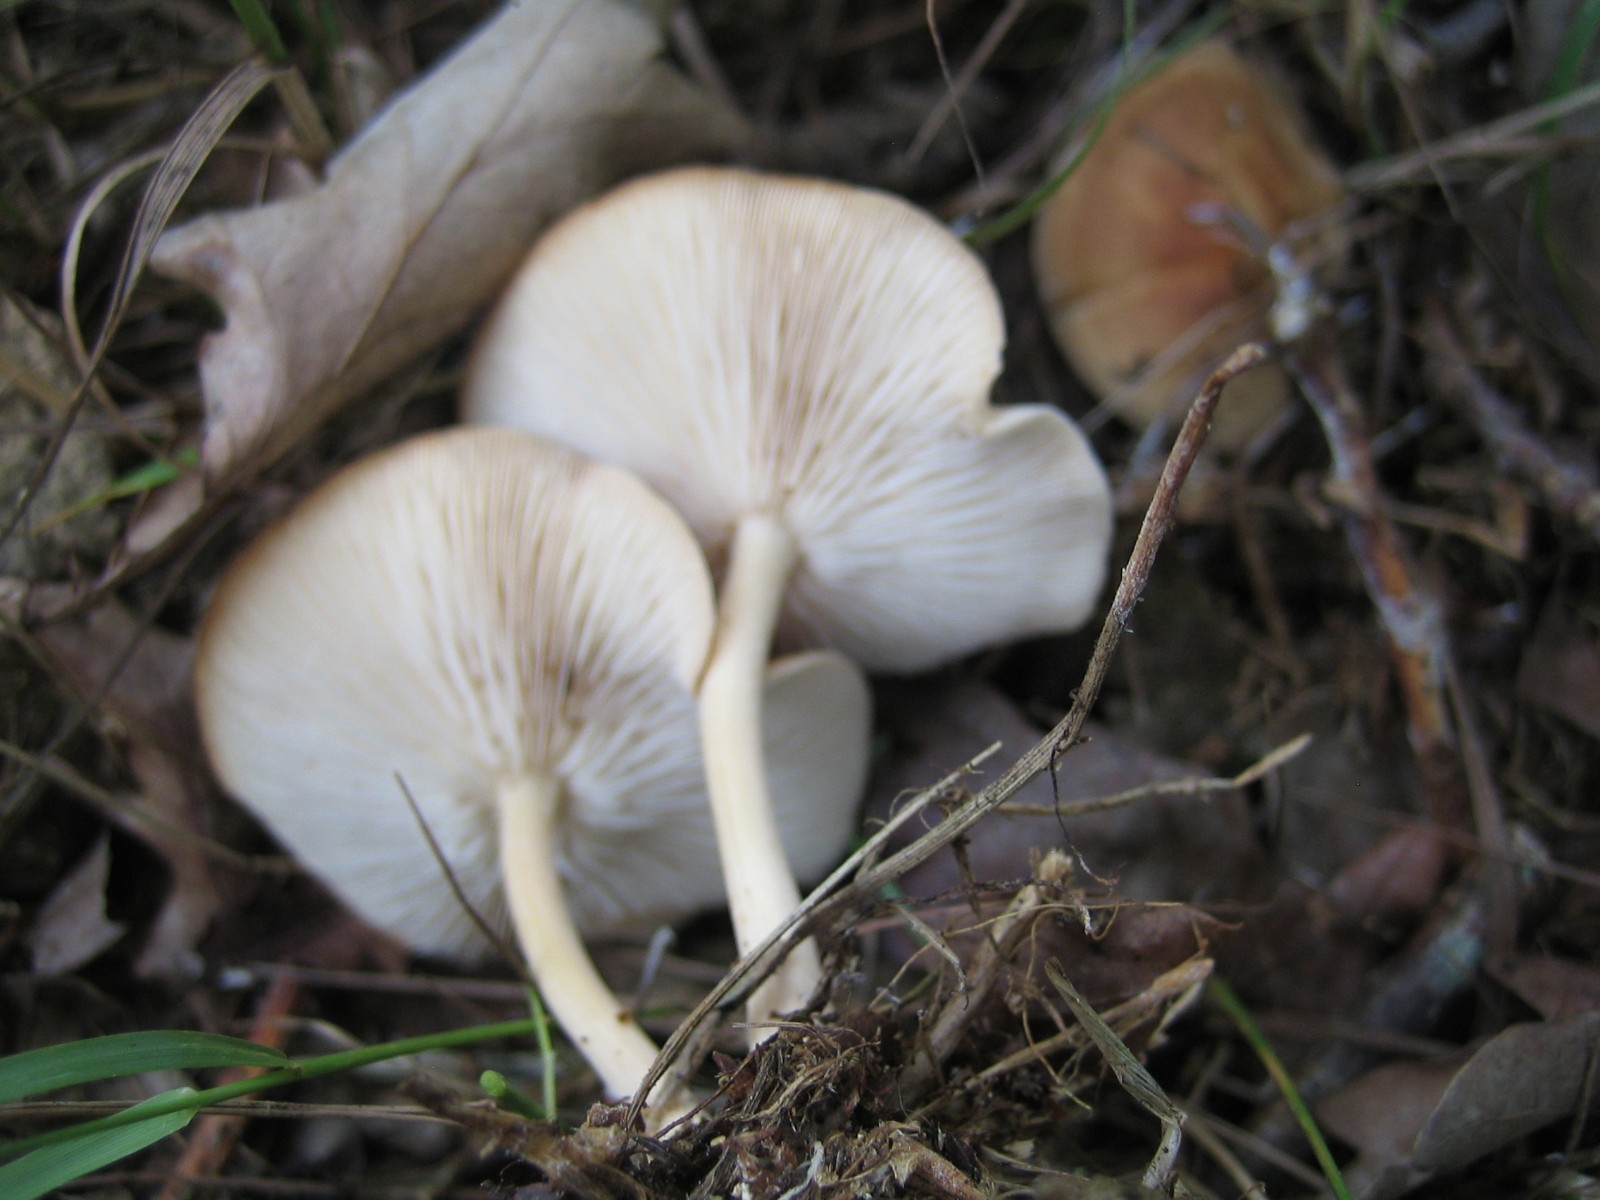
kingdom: Fungi
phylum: Basidiomycota
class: Agaricomycetes
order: Agaricales
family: Omphalotaceae
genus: Gymnopus
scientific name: Gymnopus dryophilus
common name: løv-fladhat
